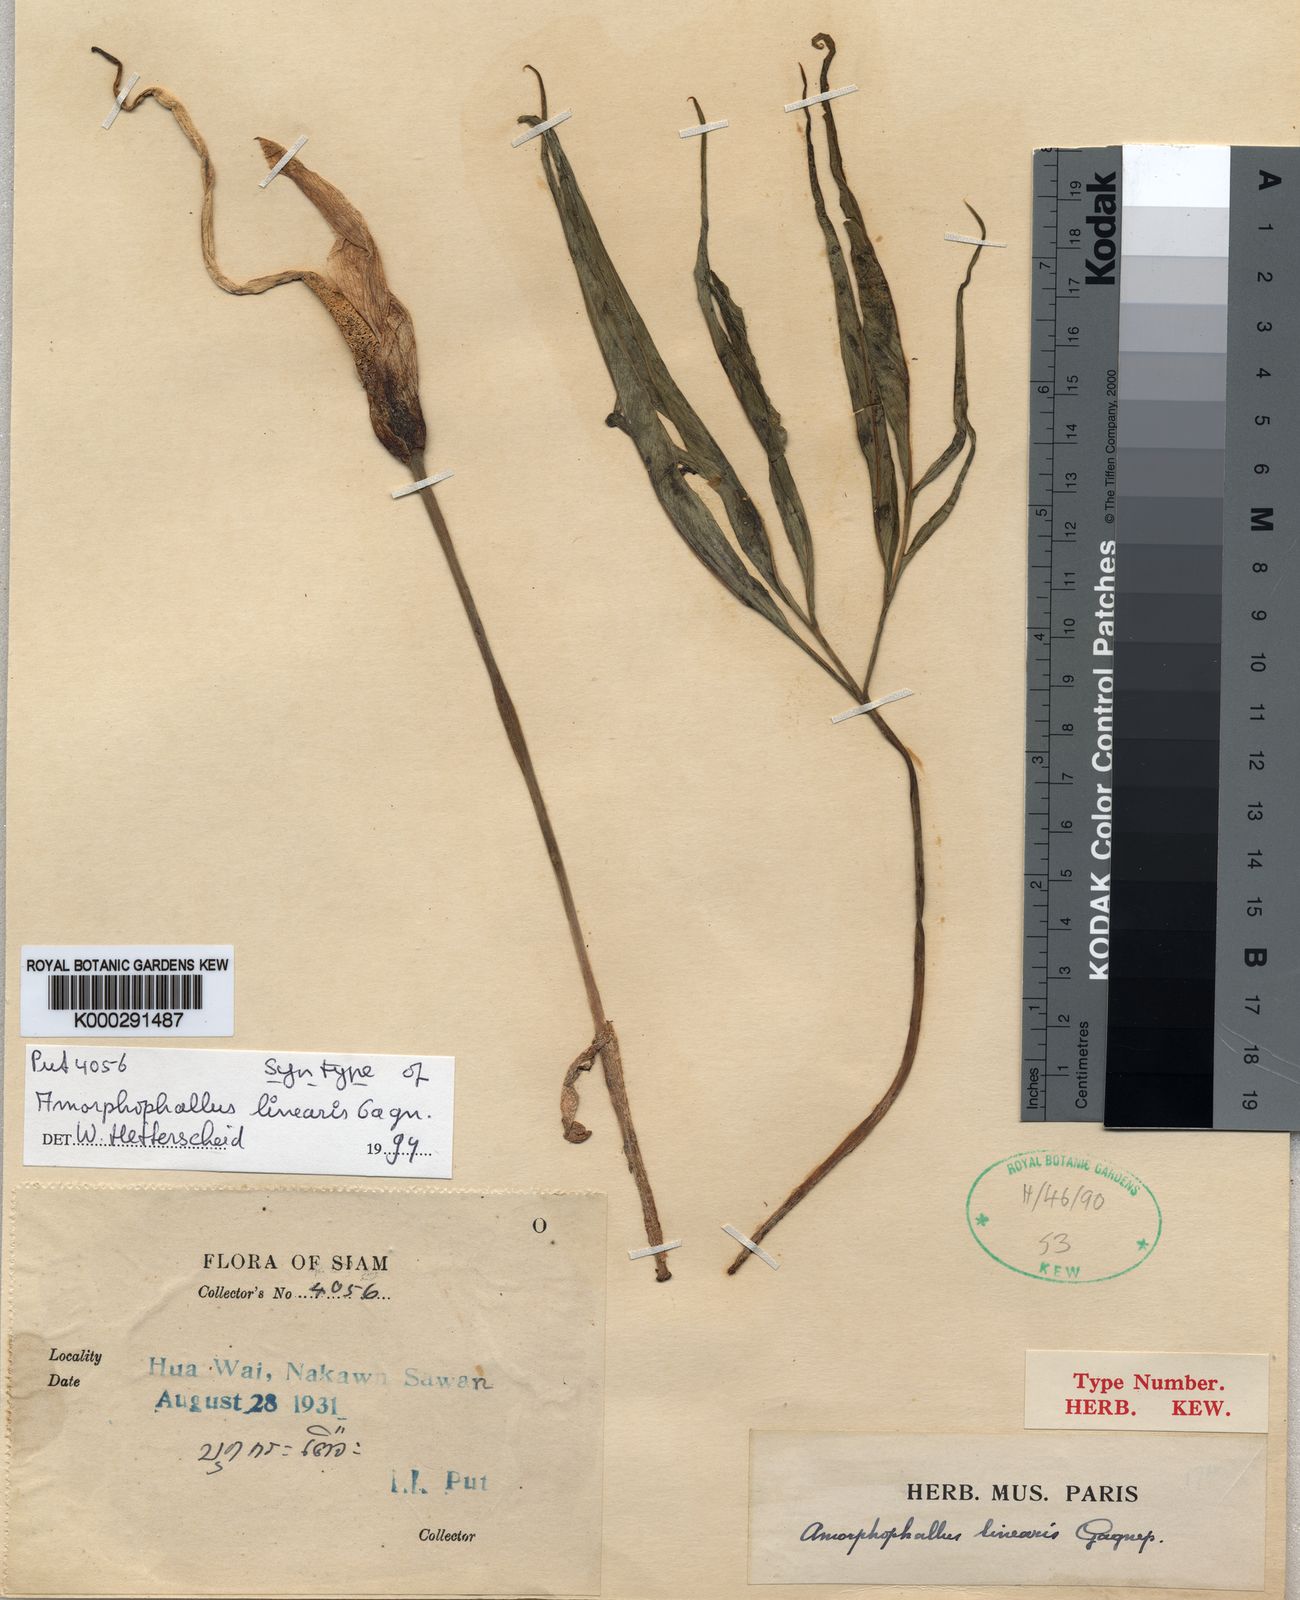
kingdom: Plantae
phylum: Tracheophyta
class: Liliopsida
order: Alismatales
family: Araceae
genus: Amorphophallus
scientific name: Amorphophallus linearis
